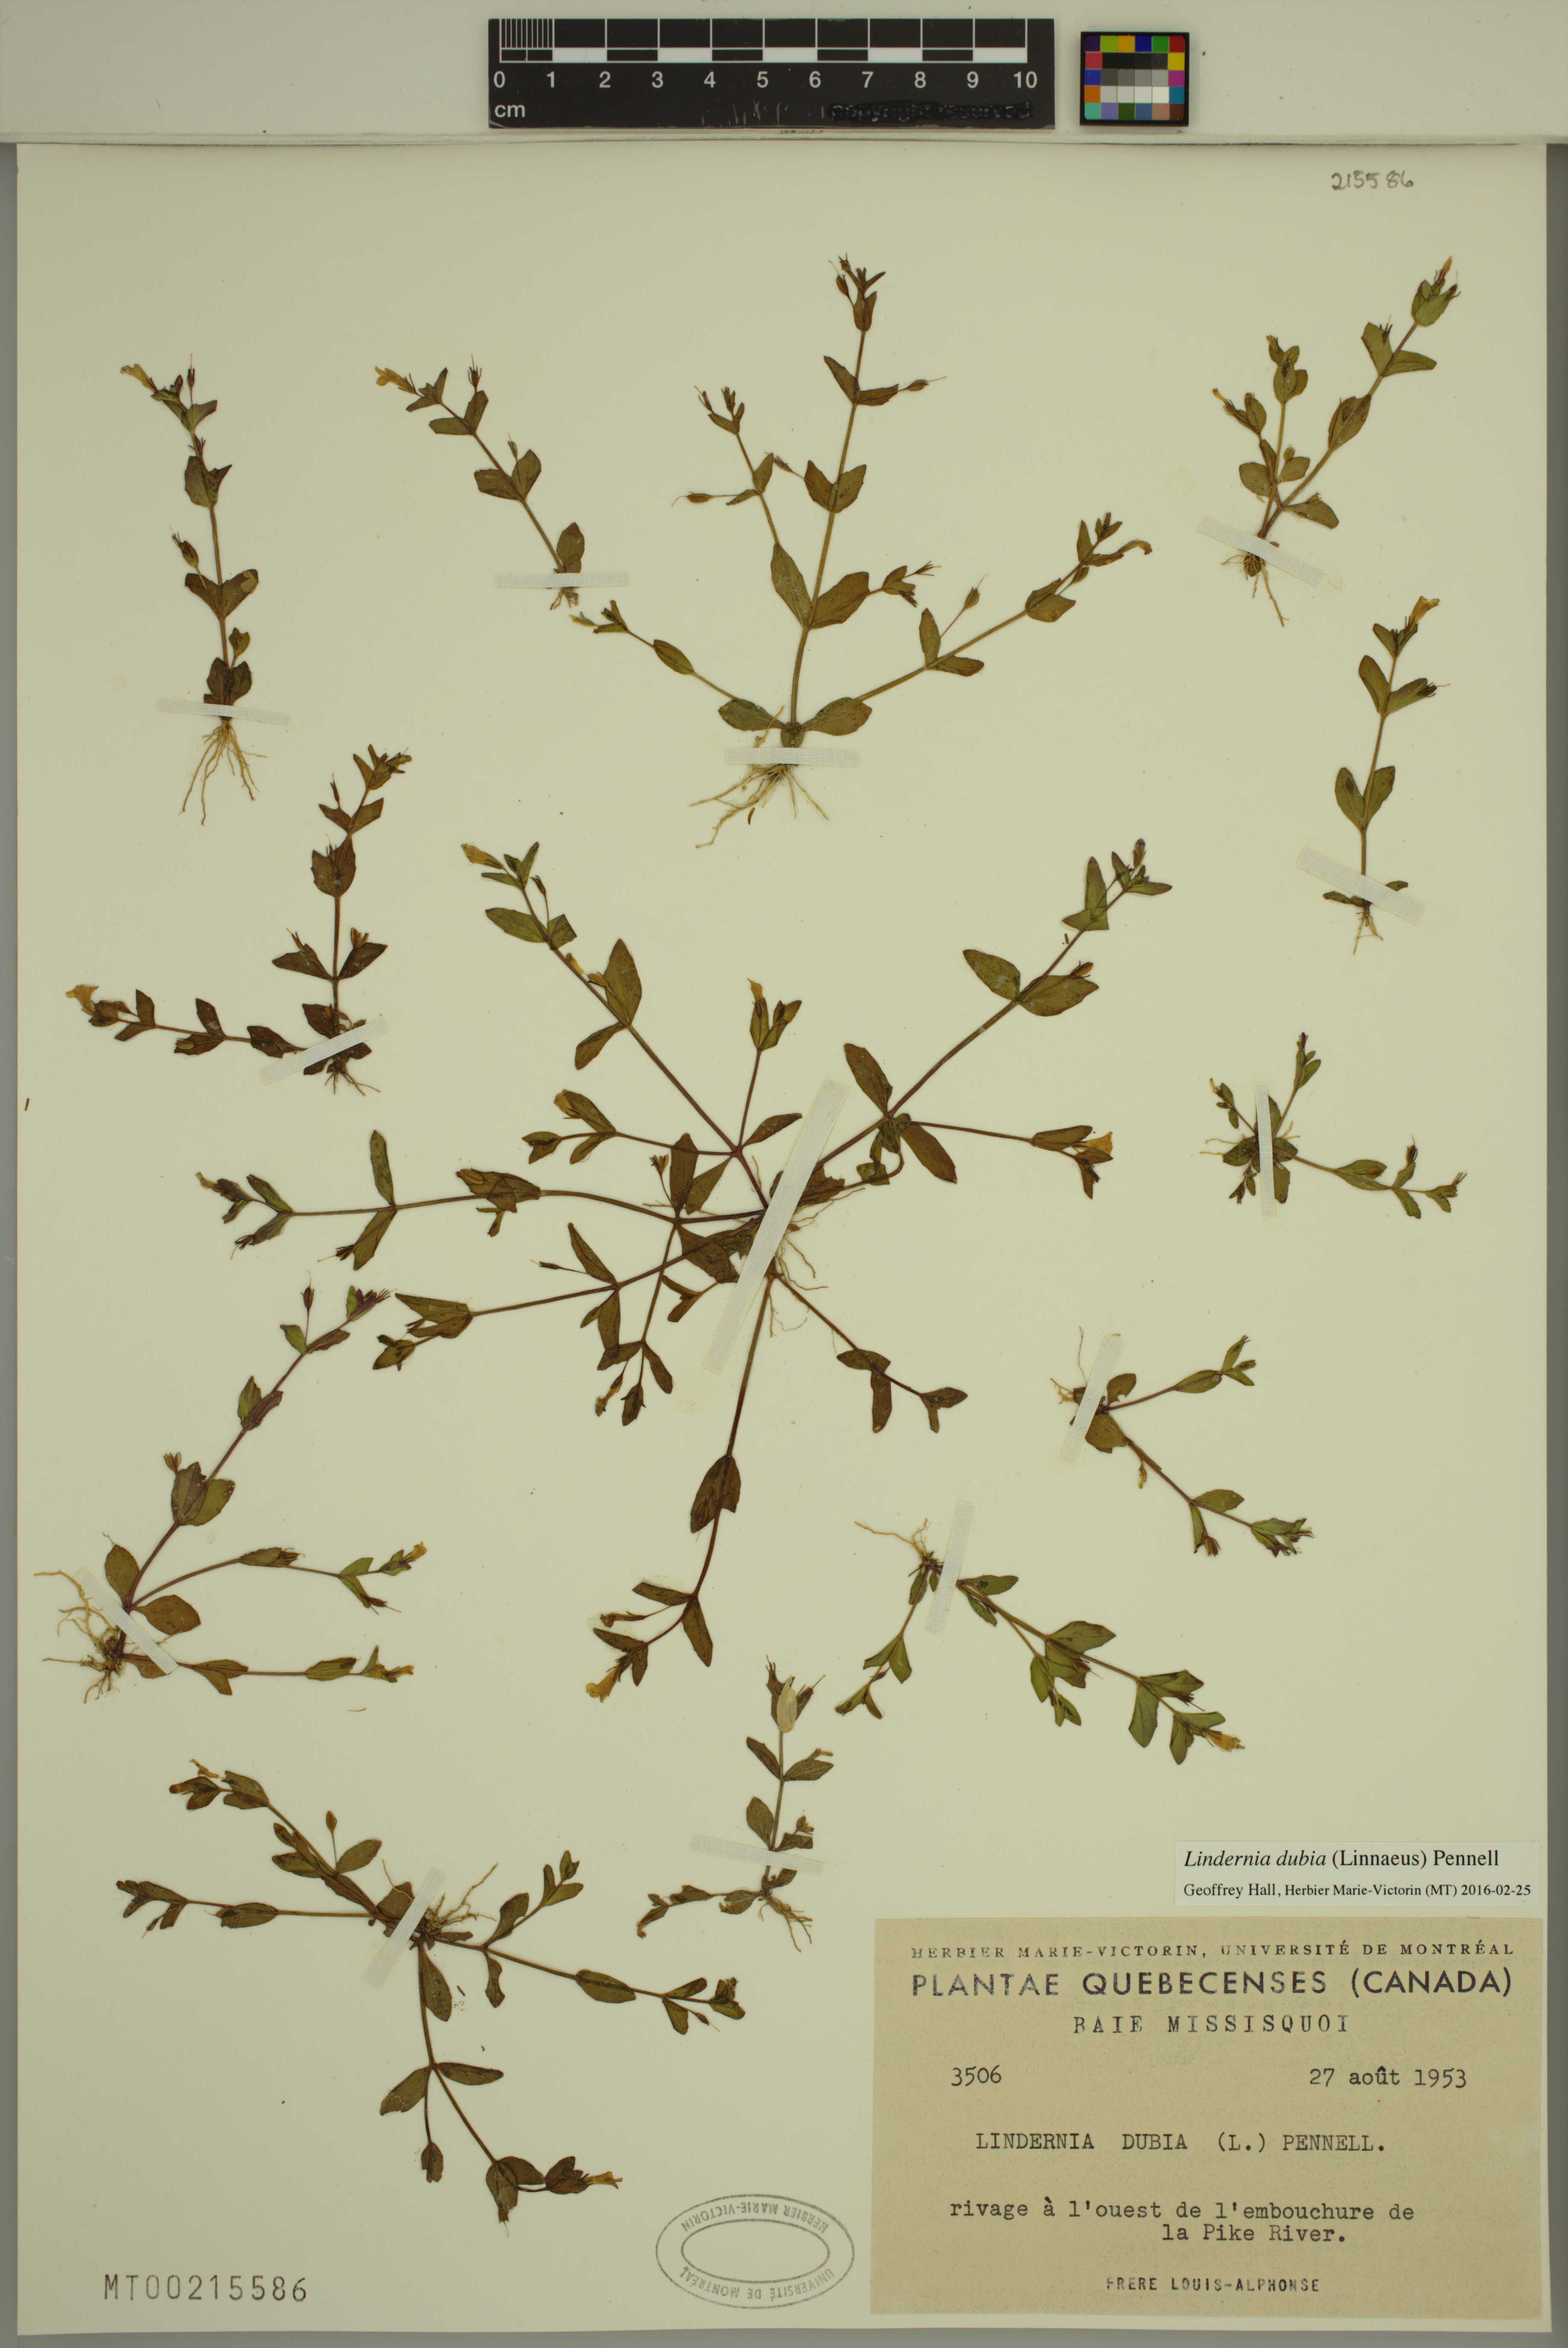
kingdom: Plantae
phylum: Tracheophyta
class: Magnoliopsida
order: Lamiales
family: Linderniaceae
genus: Lindernia
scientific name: Lindernia dubia
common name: Annual false pimpernel
